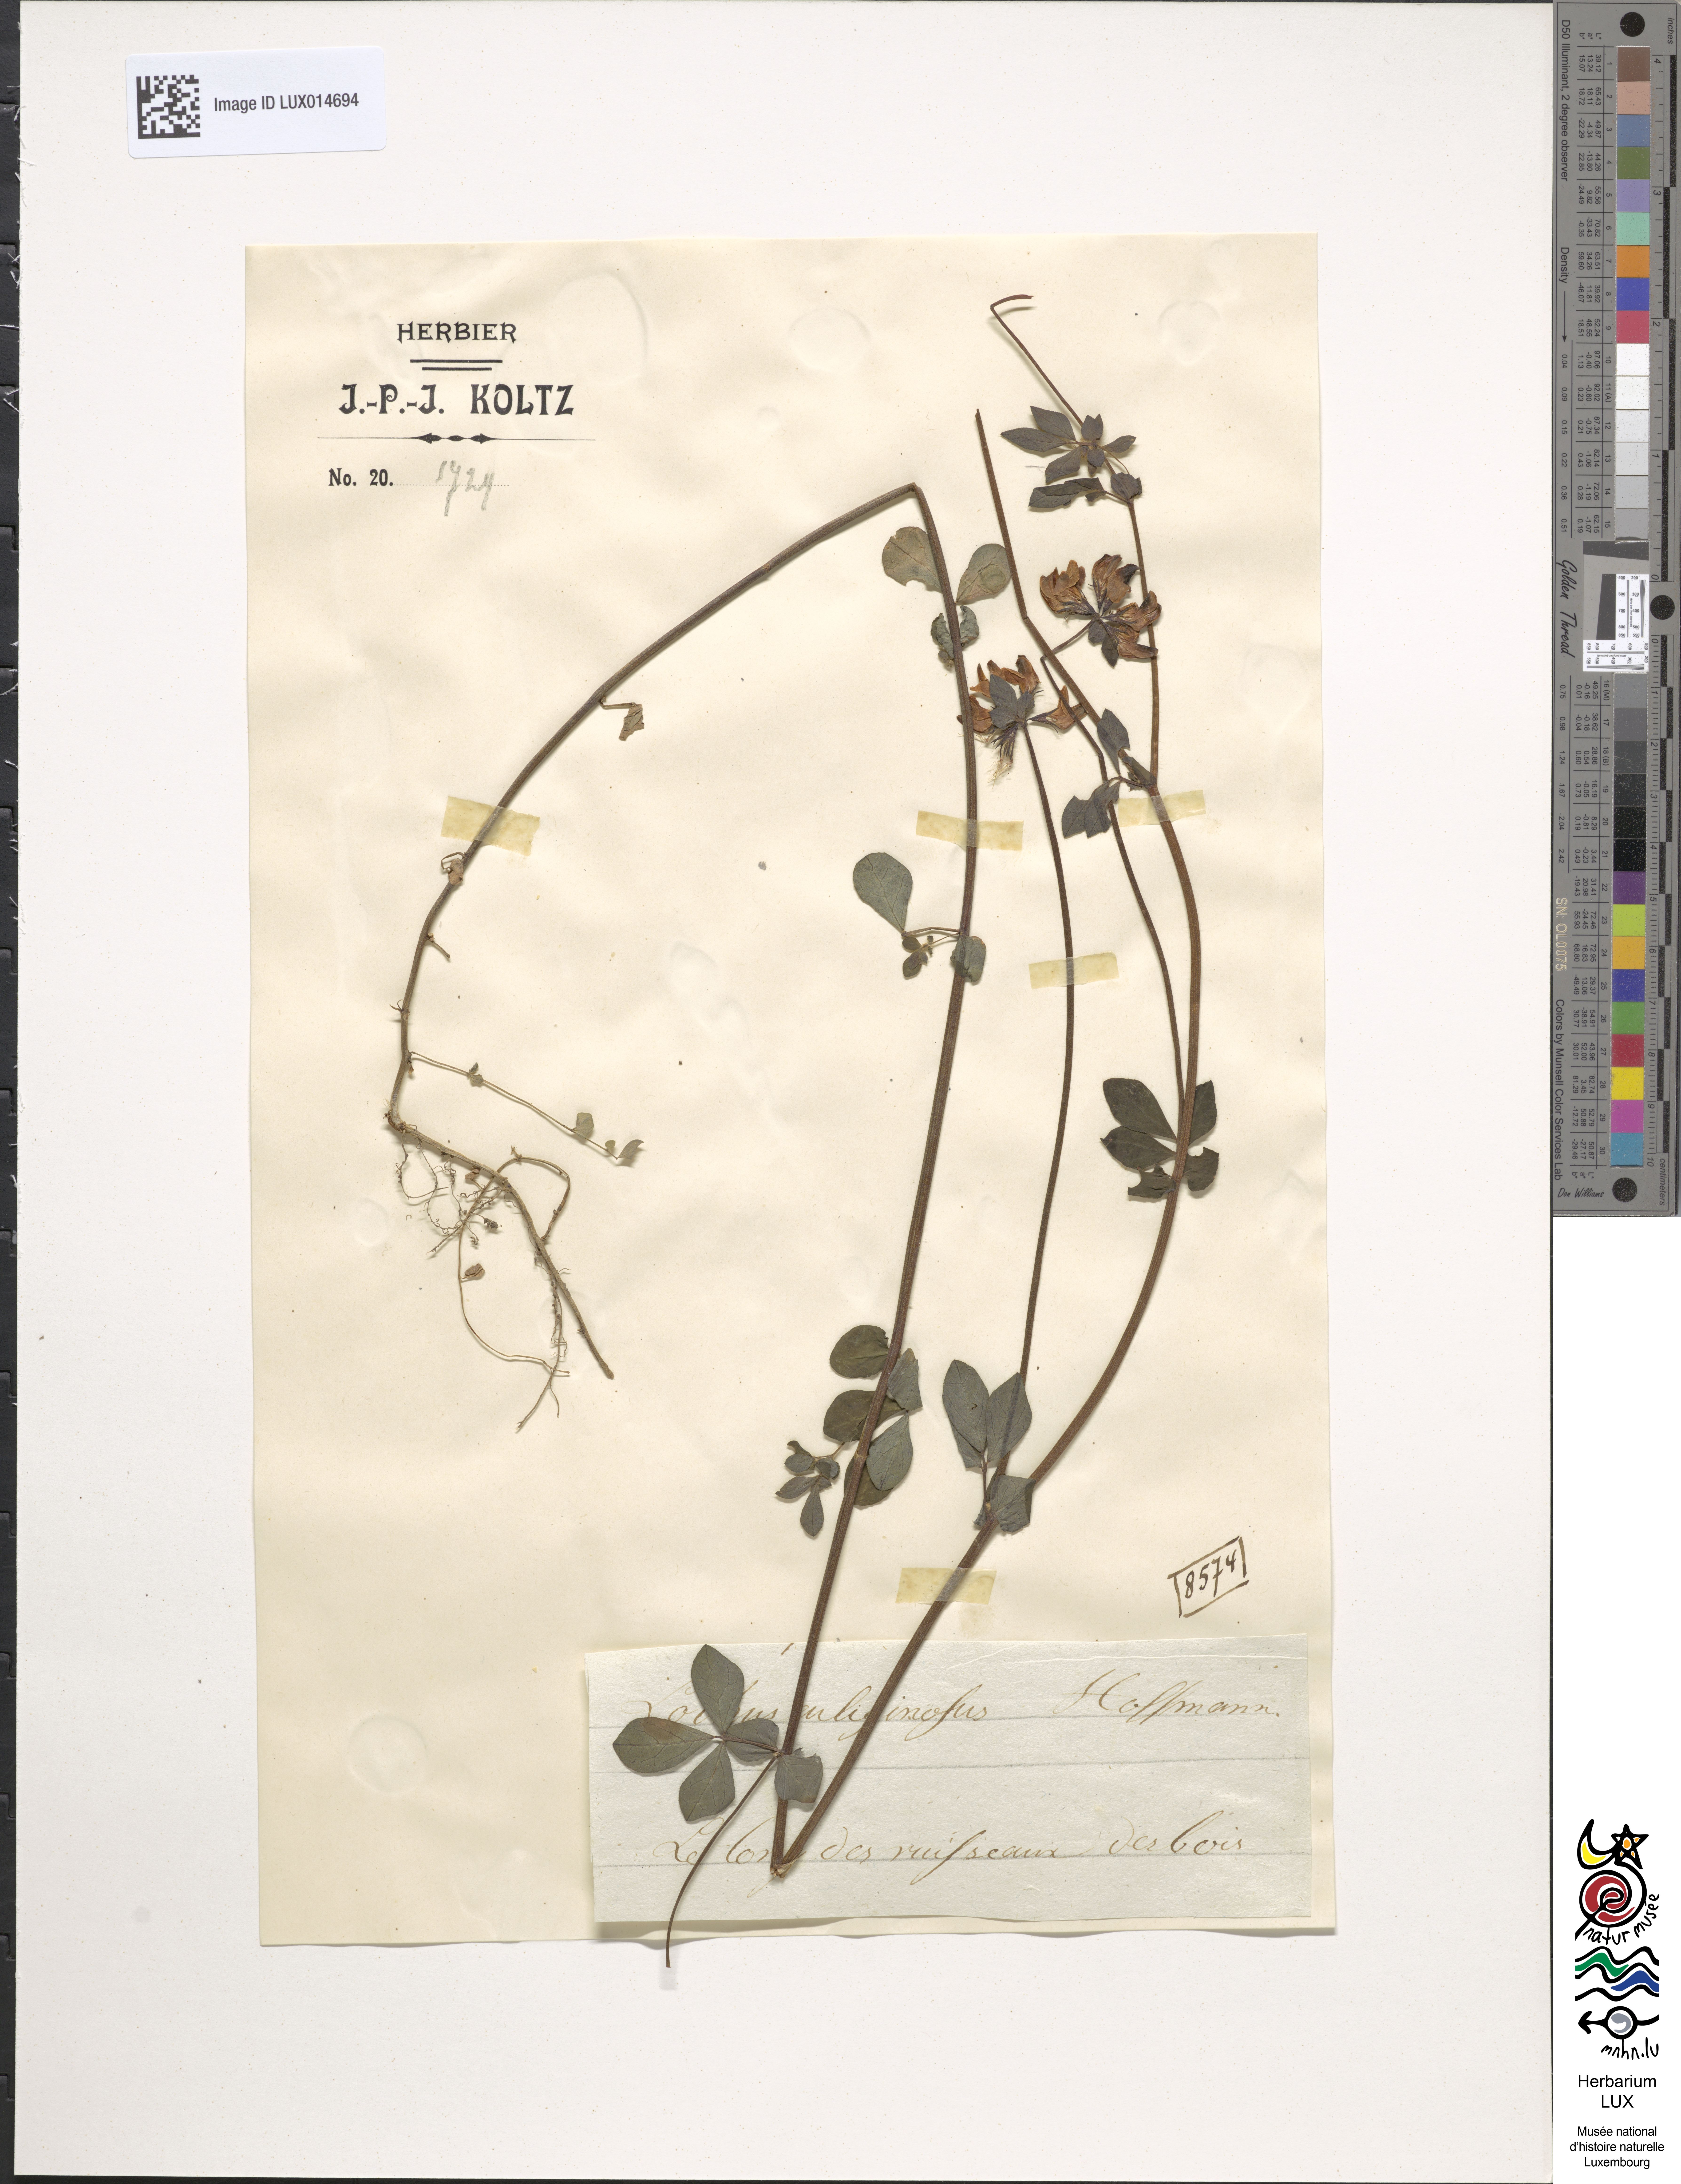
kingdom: Plantae
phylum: Tracheophyta
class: Magnoliopsida
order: Fabales
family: Fabaceae
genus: Lotus
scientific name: Lotus pedunculatus
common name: Greater birdsfoot-trefoil
